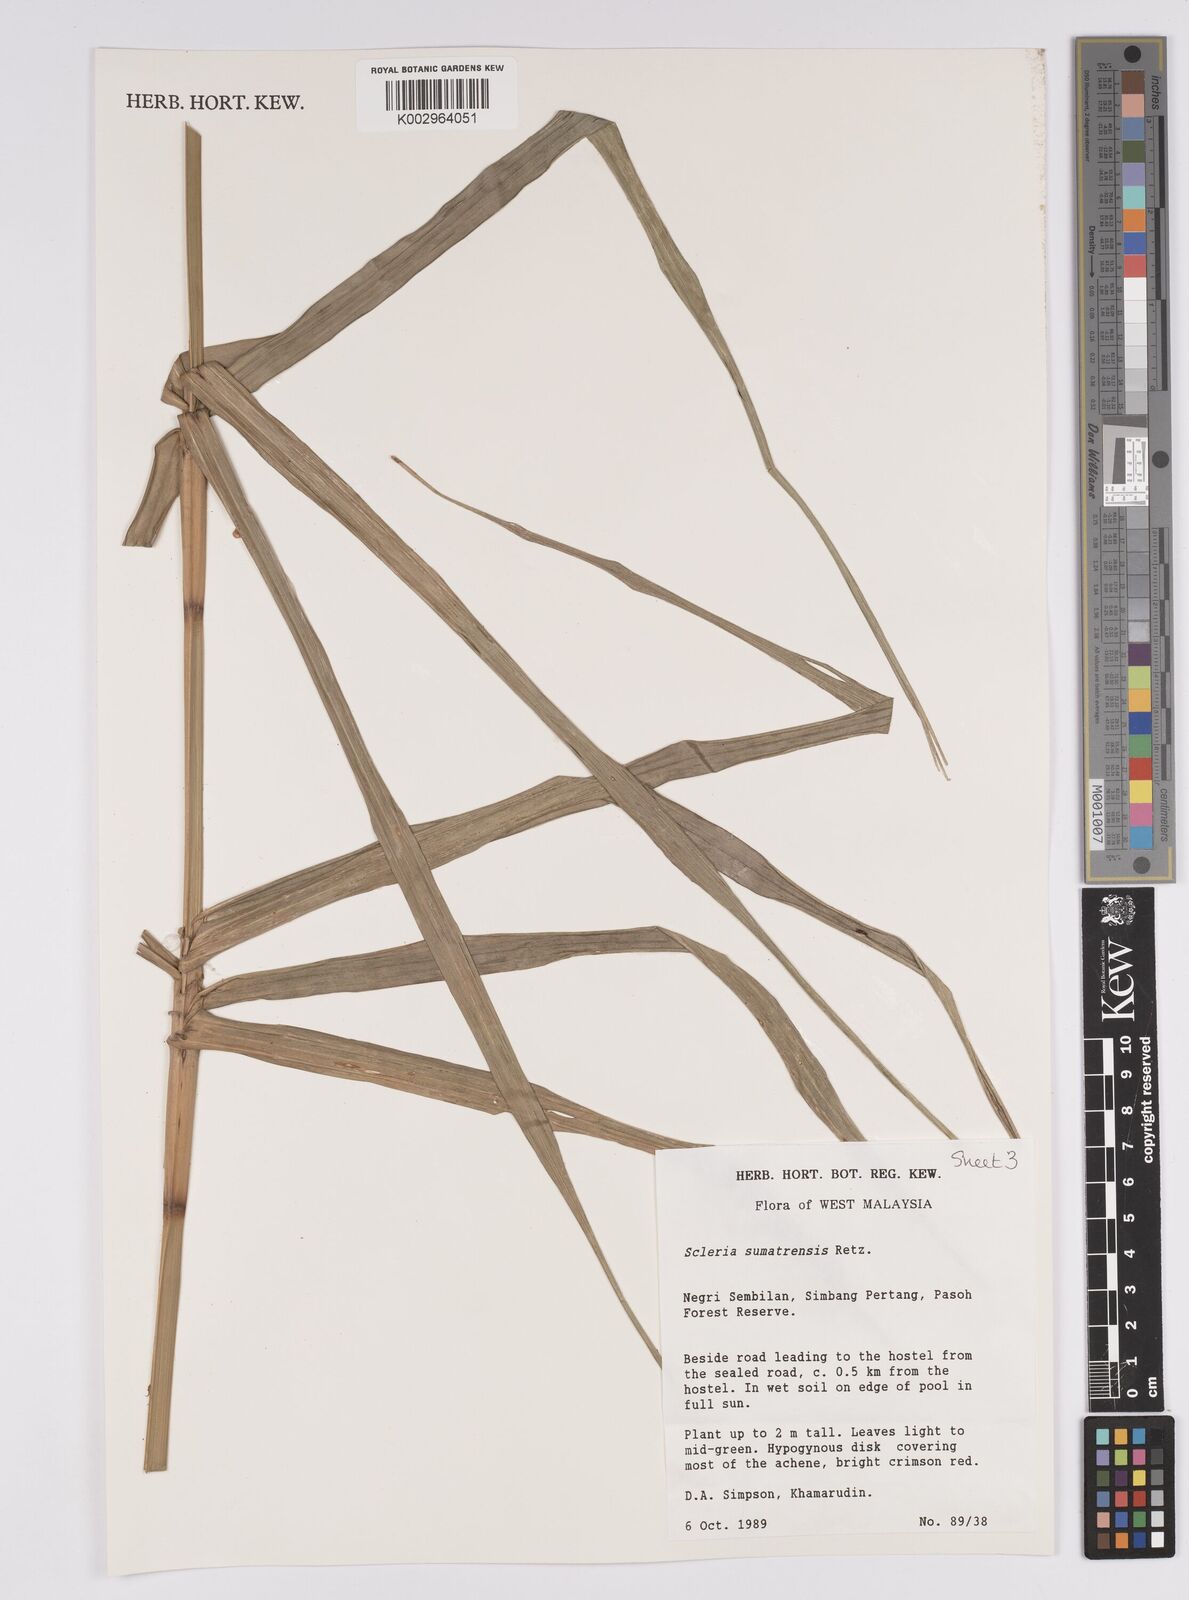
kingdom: Plantae
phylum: Tracheophyta
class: Liliopsida
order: Poales
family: Cyperaceae
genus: Scleria
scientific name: Scleria sumatrensis
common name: Sumatran scleria
